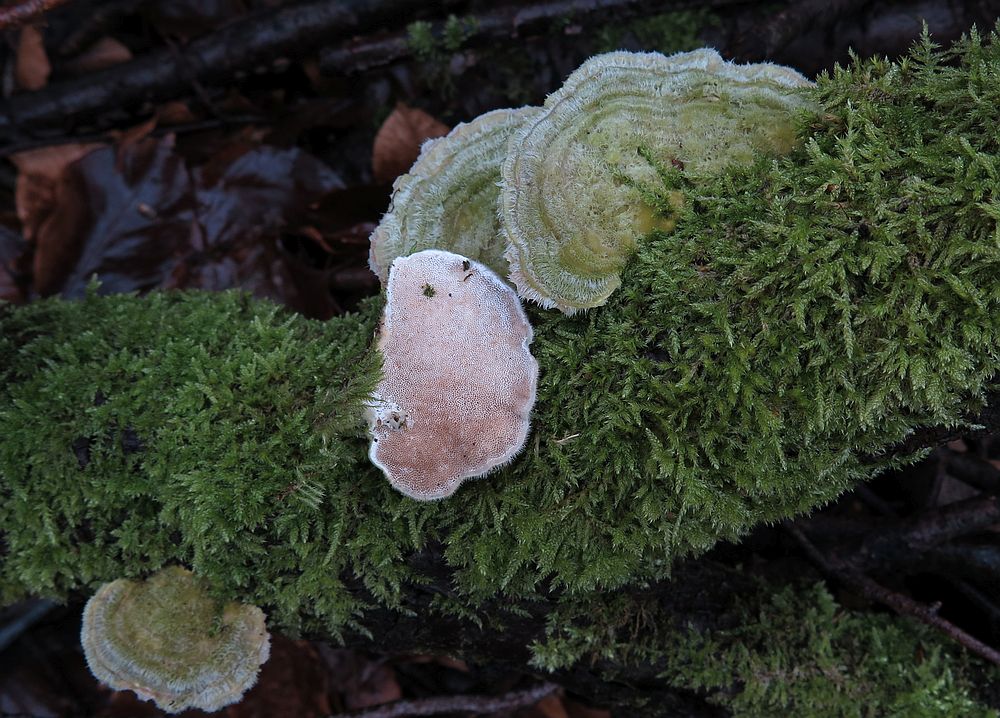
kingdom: Fungi
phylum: Basidiomycota
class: Agaricomycetes
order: Polyporales
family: Polyporaceae
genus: Trametes
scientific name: Trametes hirsuta
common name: håret læderporesvamp
